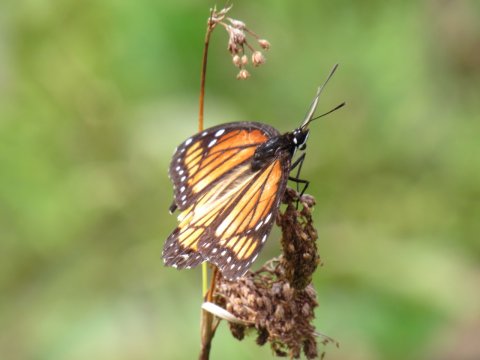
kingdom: Animalia
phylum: Arthropoda
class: Insecta
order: Lepidoptera
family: Nymphalidae
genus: Limenitis
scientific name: Limenitis archippus
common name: Viceroy
